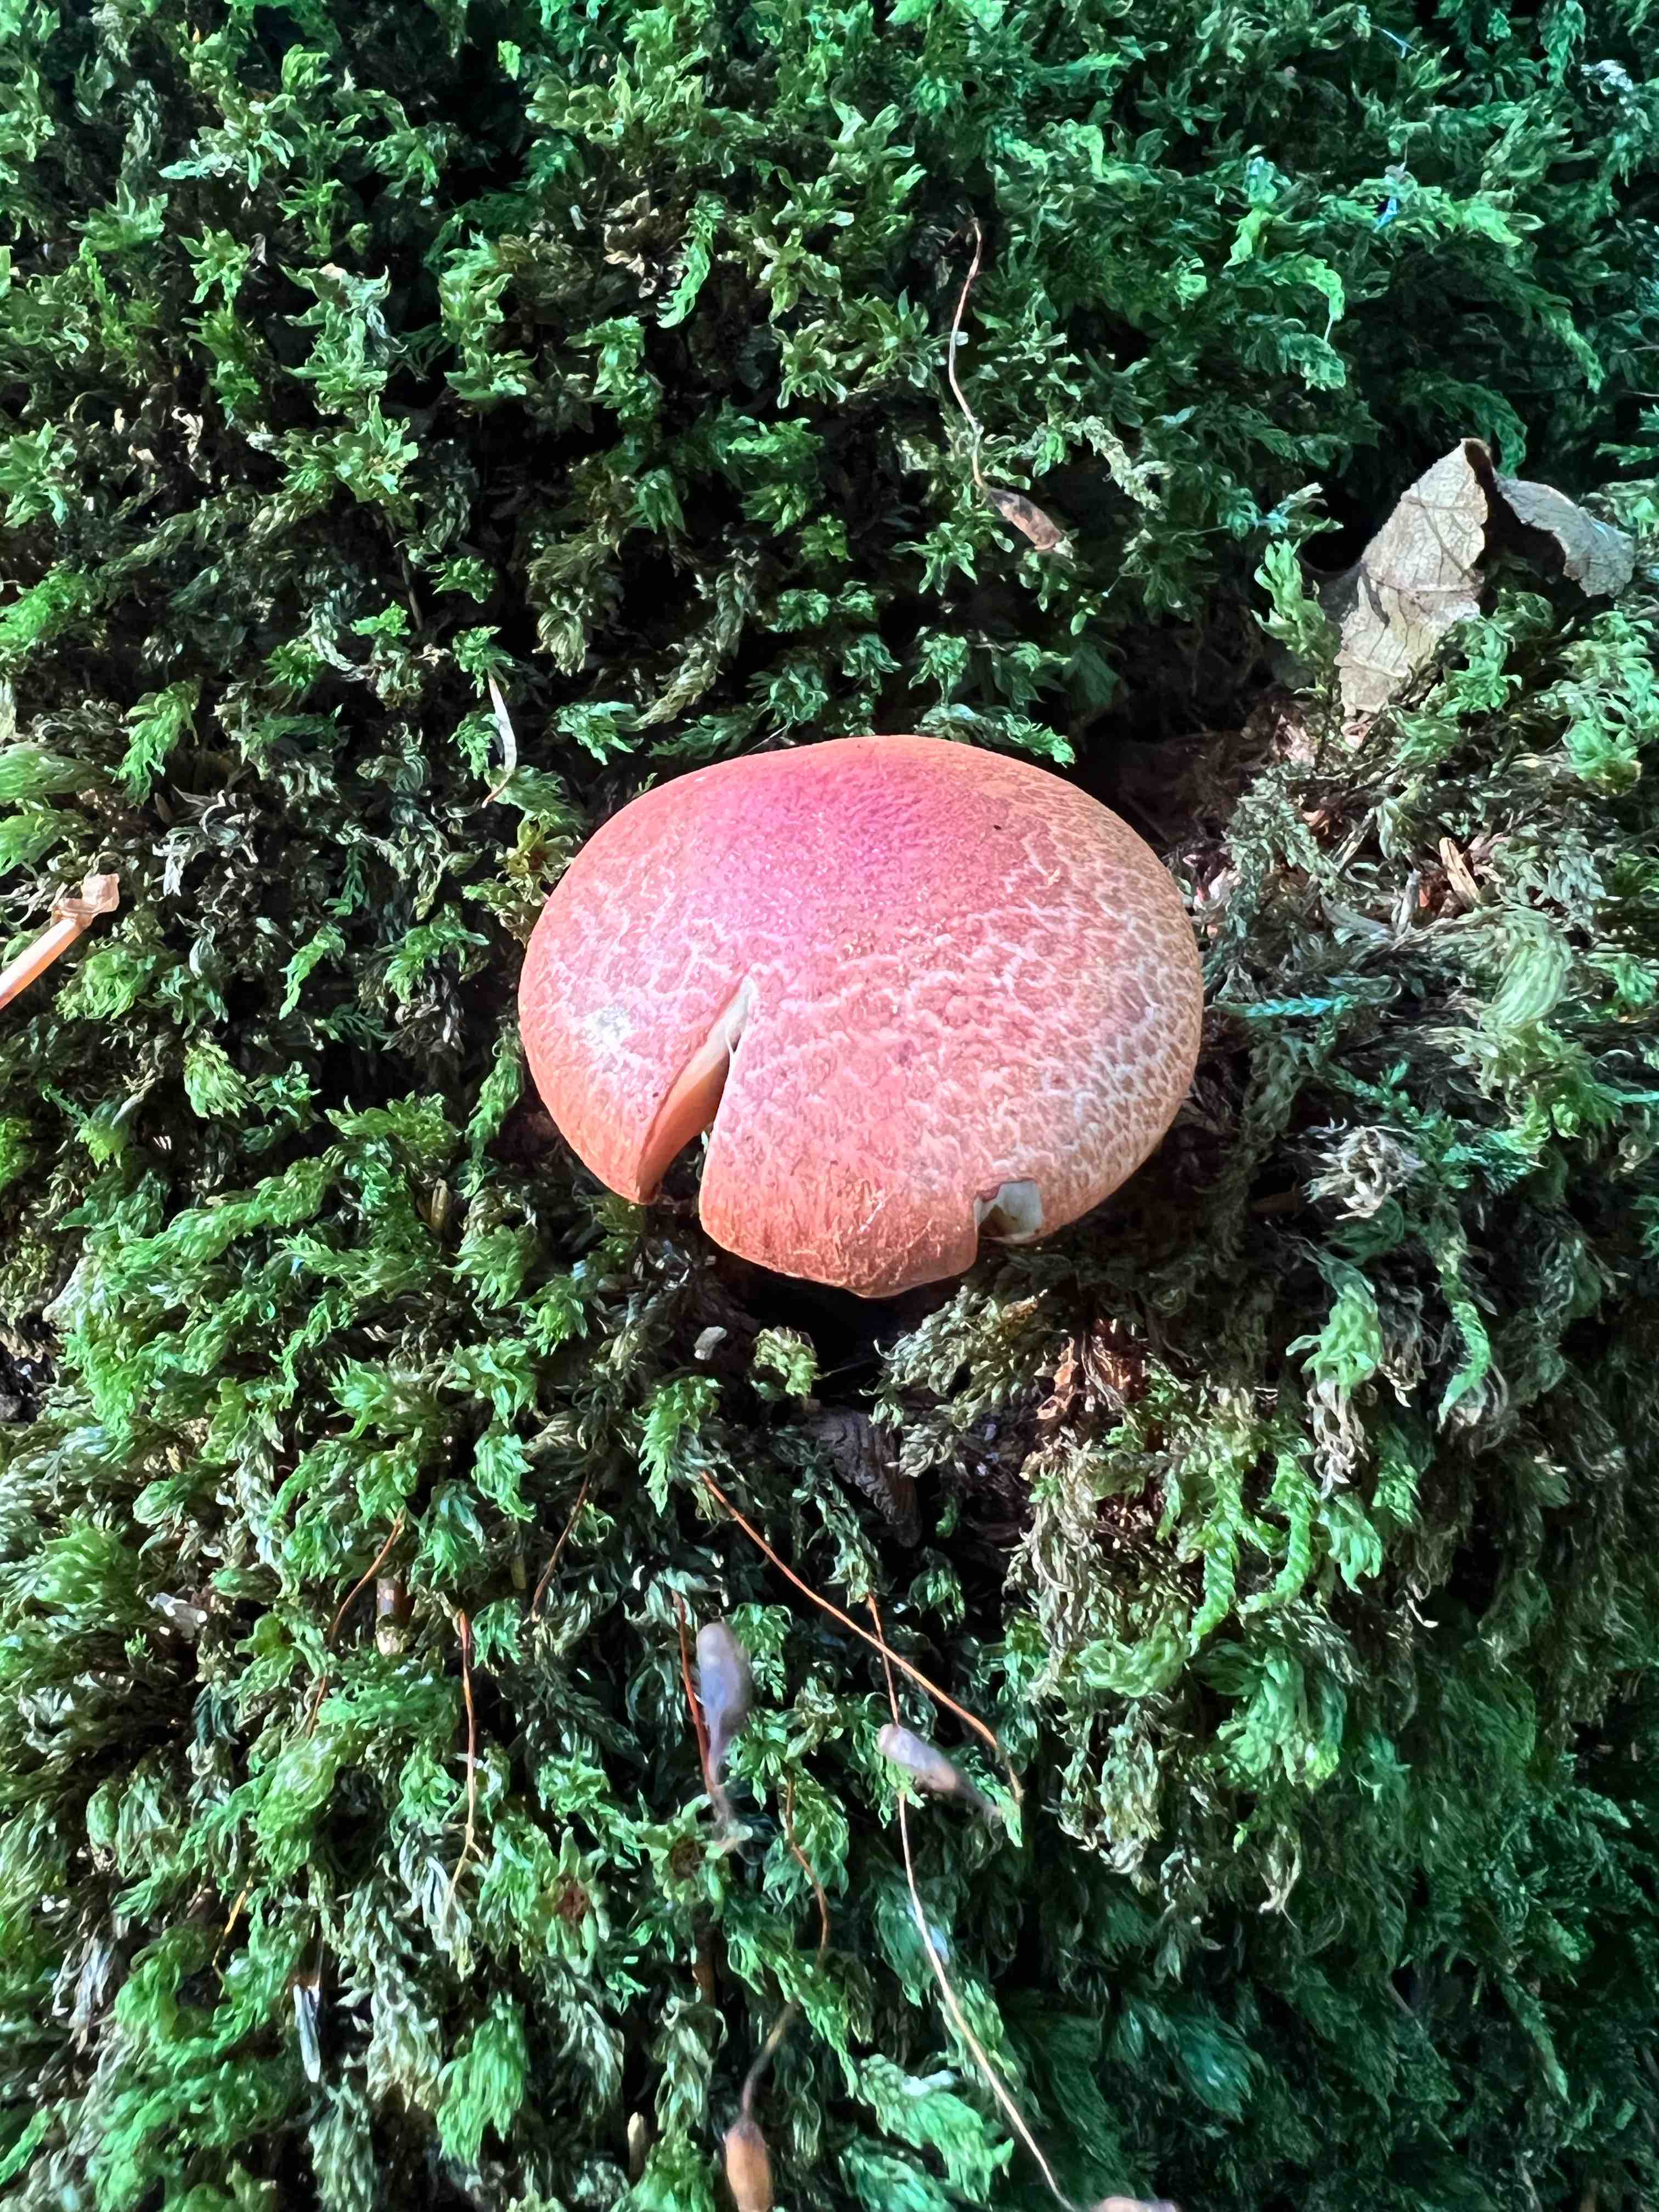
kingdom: Fungi
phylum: Basidiomycota
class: Agaricomycetes
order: Agaricales
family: Cortinariaceae
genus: Cortinarius
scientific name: Cortinarius bolaris
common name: cinnoberskællet slørhat
